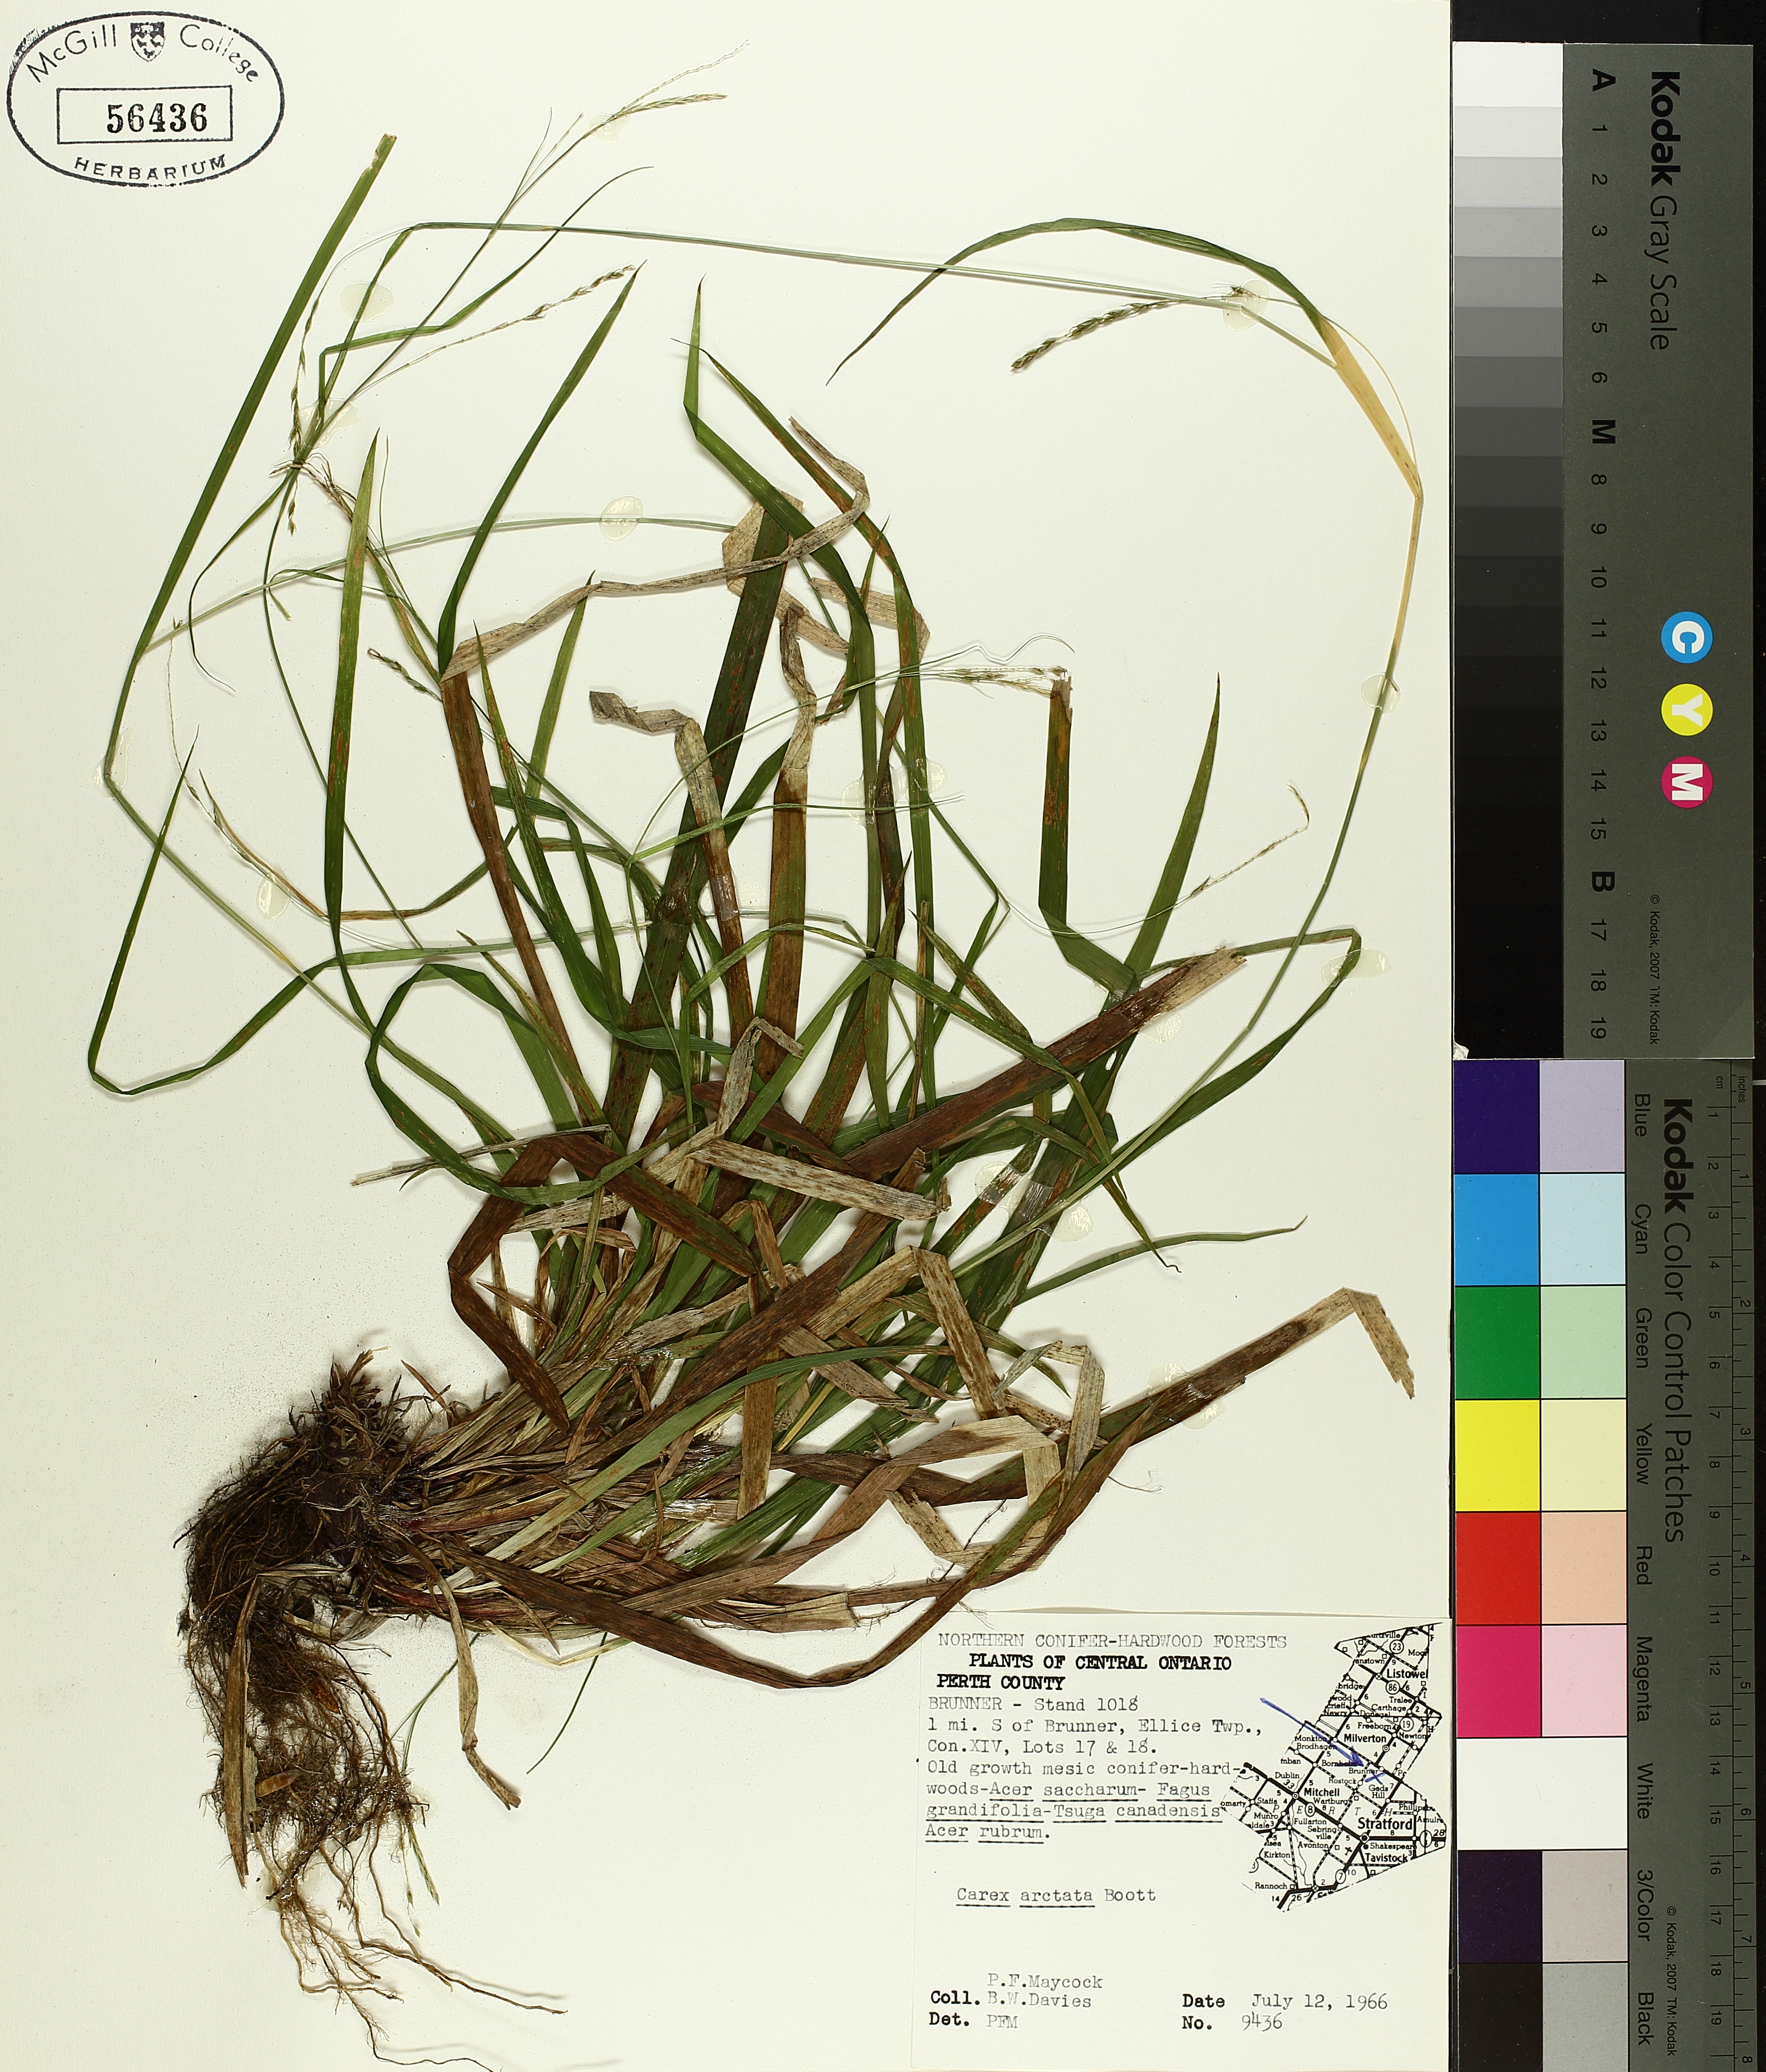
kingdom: Plantae
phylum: Tracheophyta
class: Liliopsida
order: Poales
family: Cyperaceae
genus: Carex
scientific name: Carex arctata
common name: Black sedge
